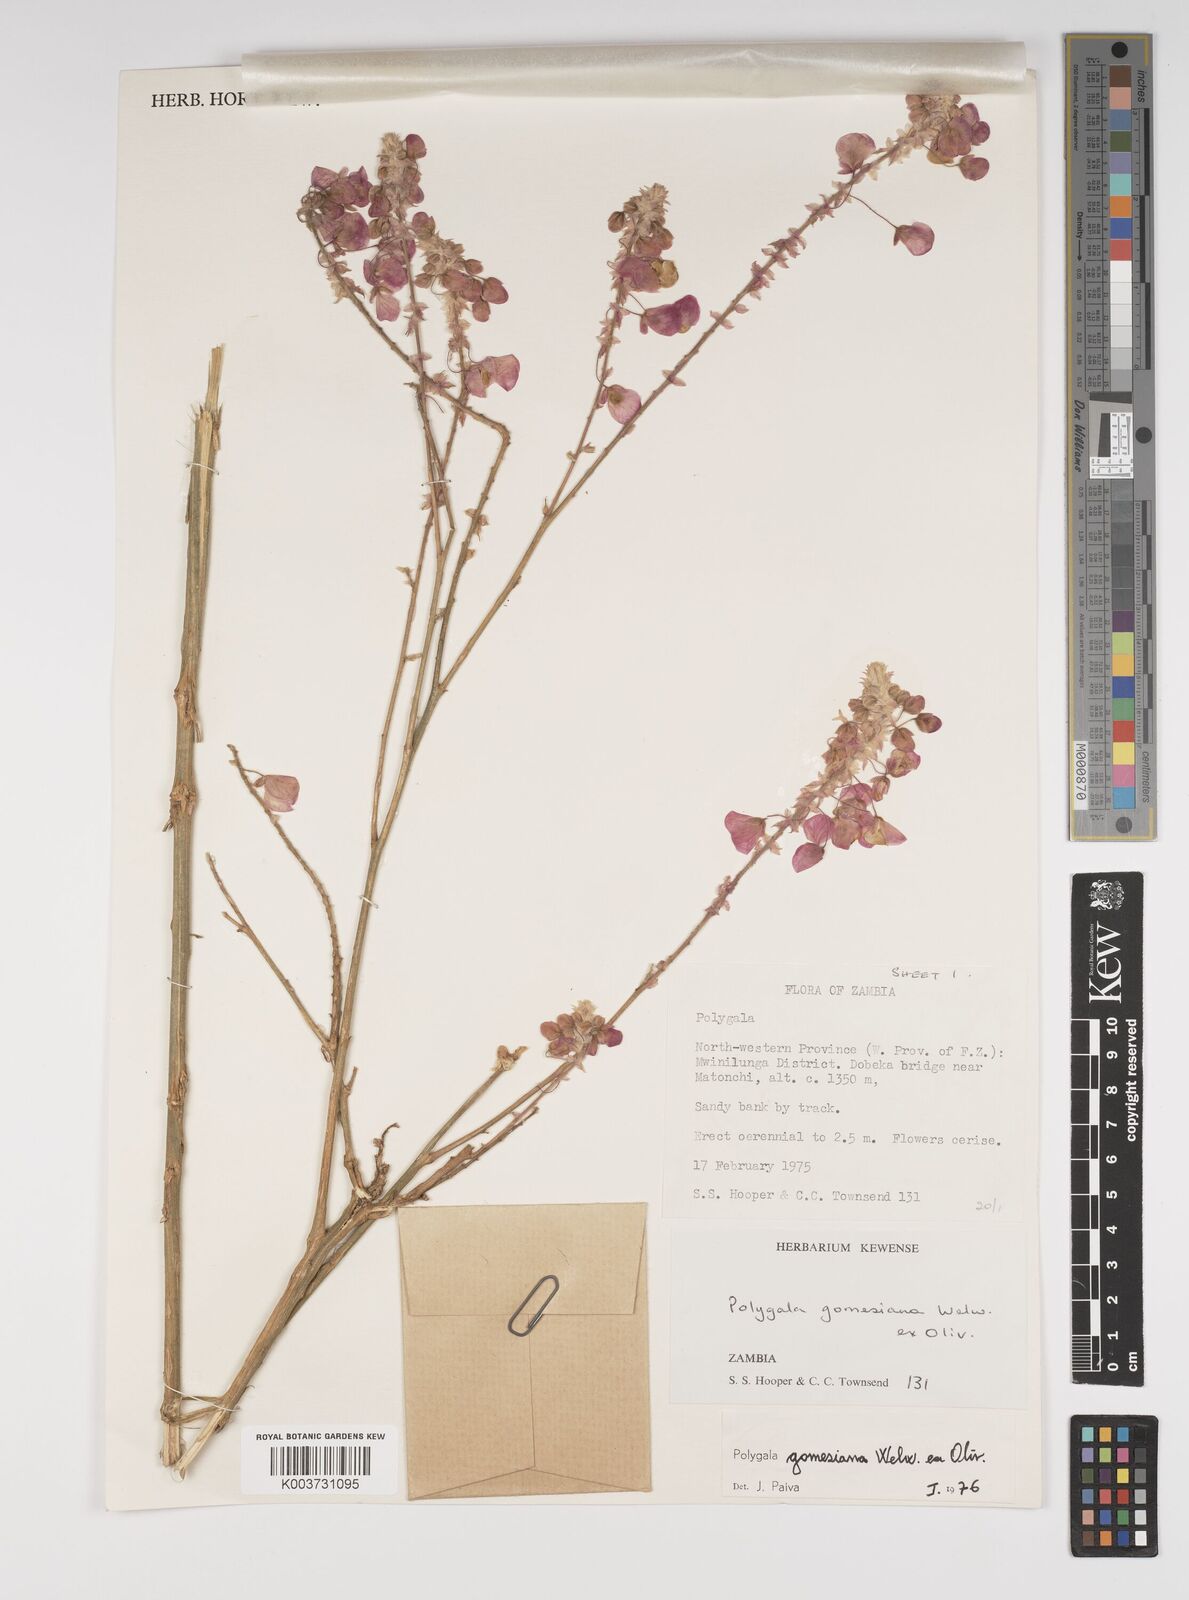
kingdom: Plantae
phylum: Tracheophyta
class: Magnoliopsida
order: Fabales
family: Polygalaceae
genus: Polygala
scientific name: Polygala gomesiana
